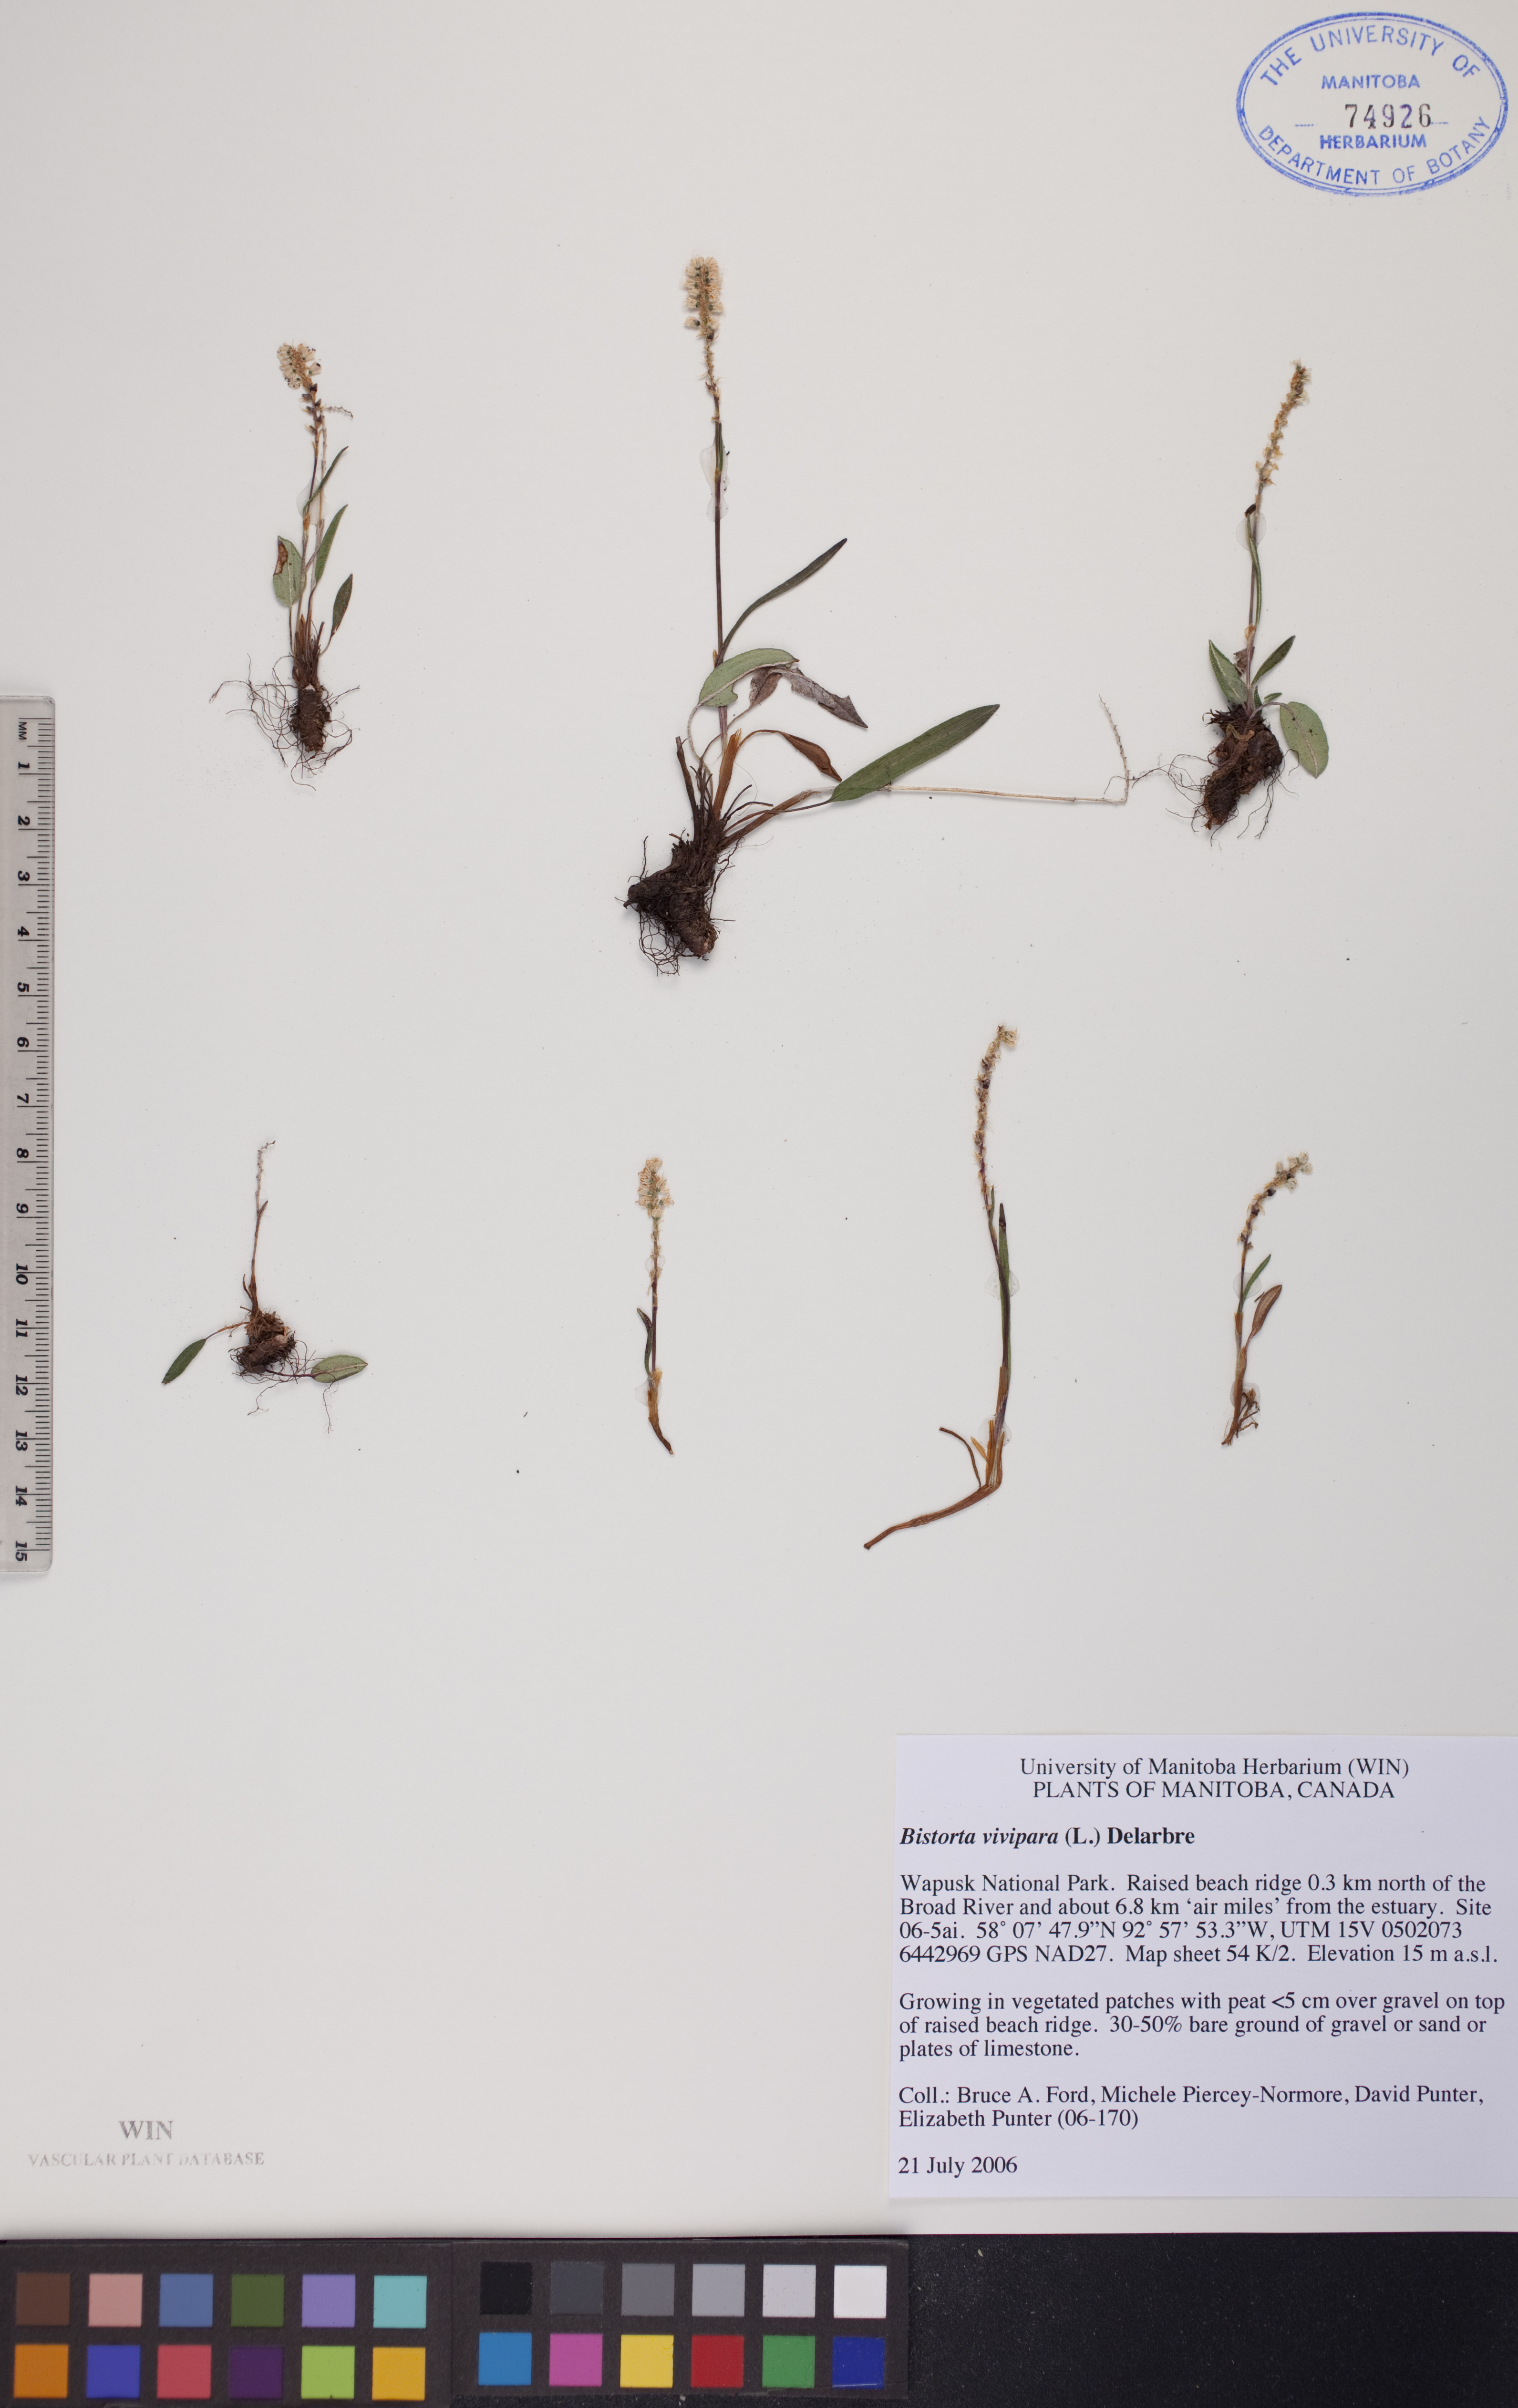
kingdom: Plantae
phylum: Tracheophyta
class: Magnoliopsida
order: Caryophyllales
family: Polygonaceae
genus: Bistorta
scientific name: Bistorta vivipara
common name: Alpine bistort
